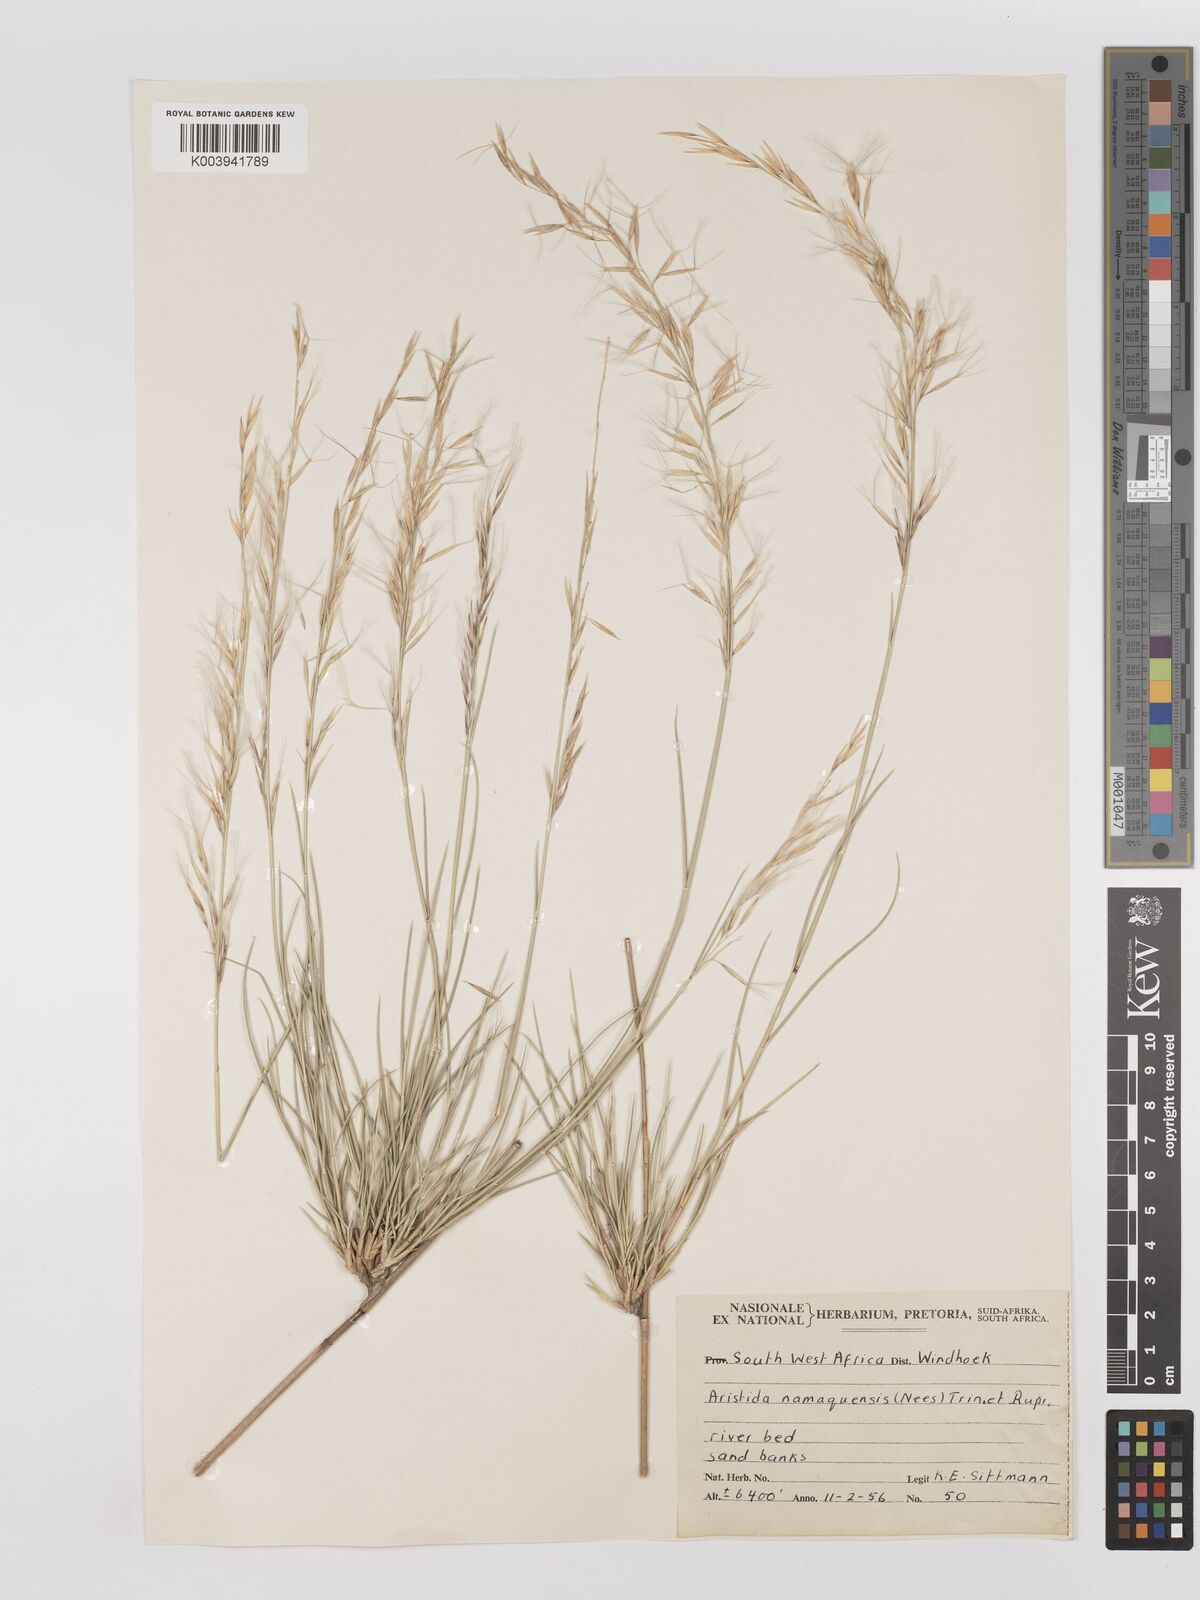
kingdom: Plantae
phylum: Tracheophyta
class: Liliopsida
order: Poales
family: Poaceae
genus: Stipagrostis
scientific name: Stipagrostis namaquensis
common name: River bushman grass
